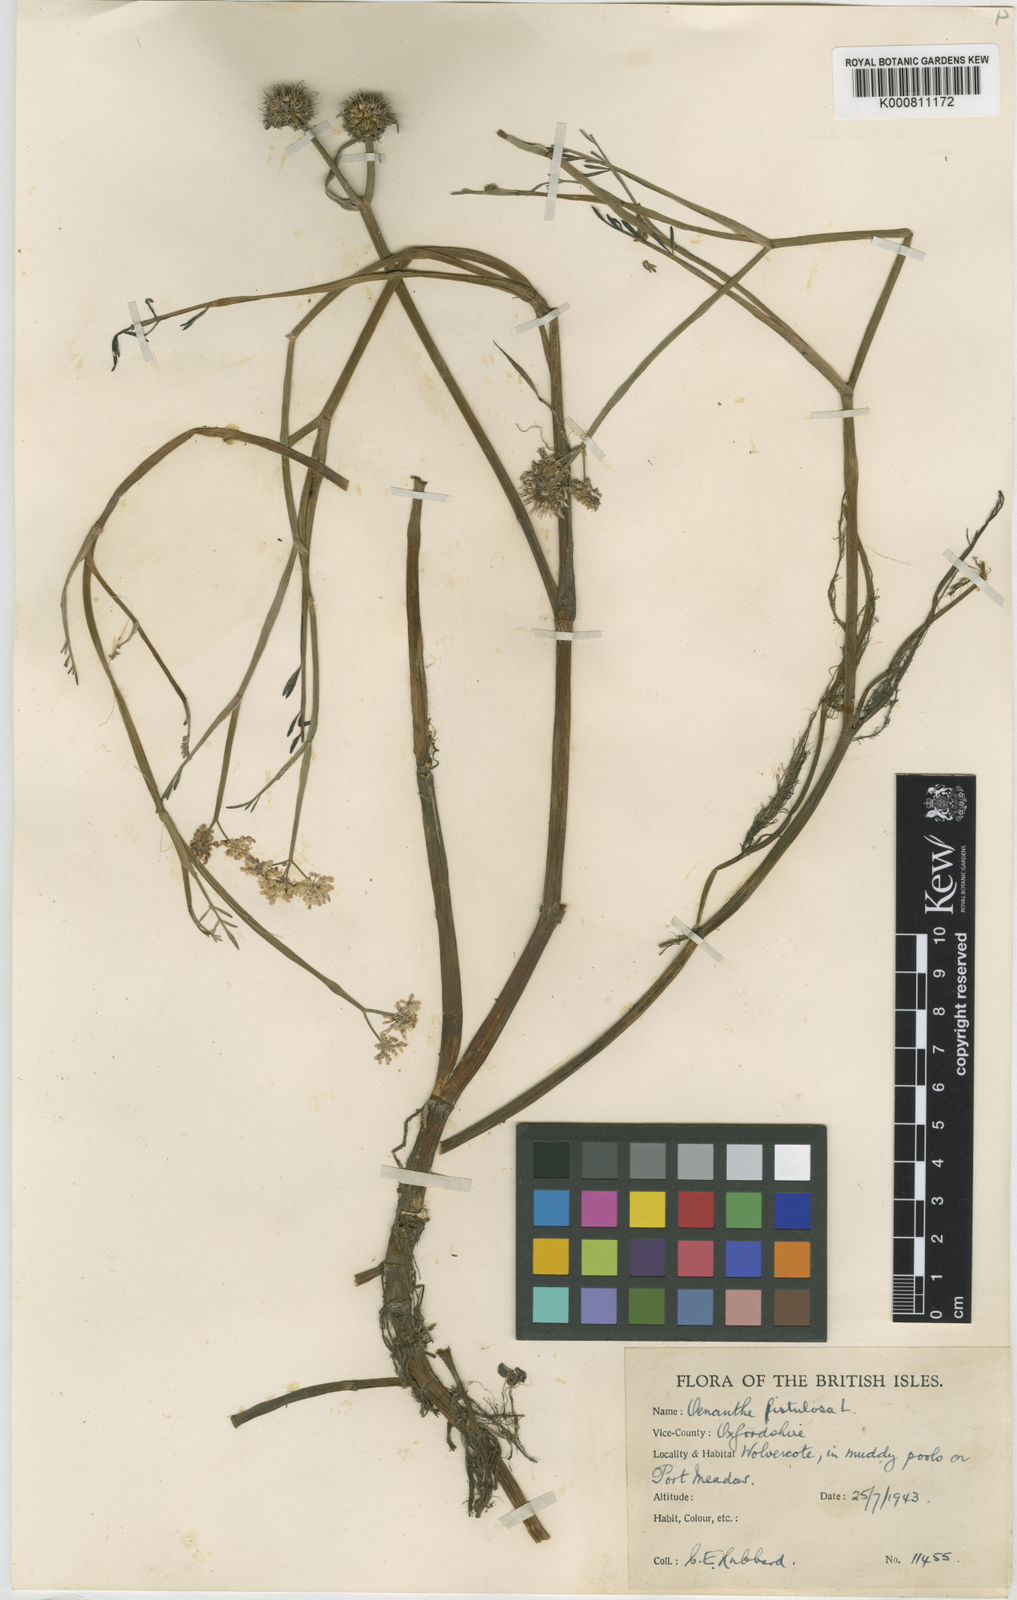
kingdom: Plantae
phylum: Tracheophyta
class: Magnoliopsida
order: Apiales
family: Apiaceae
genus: Oenanthe
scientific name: Oenanthe fistulosa
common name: Tubular water-dropwort
